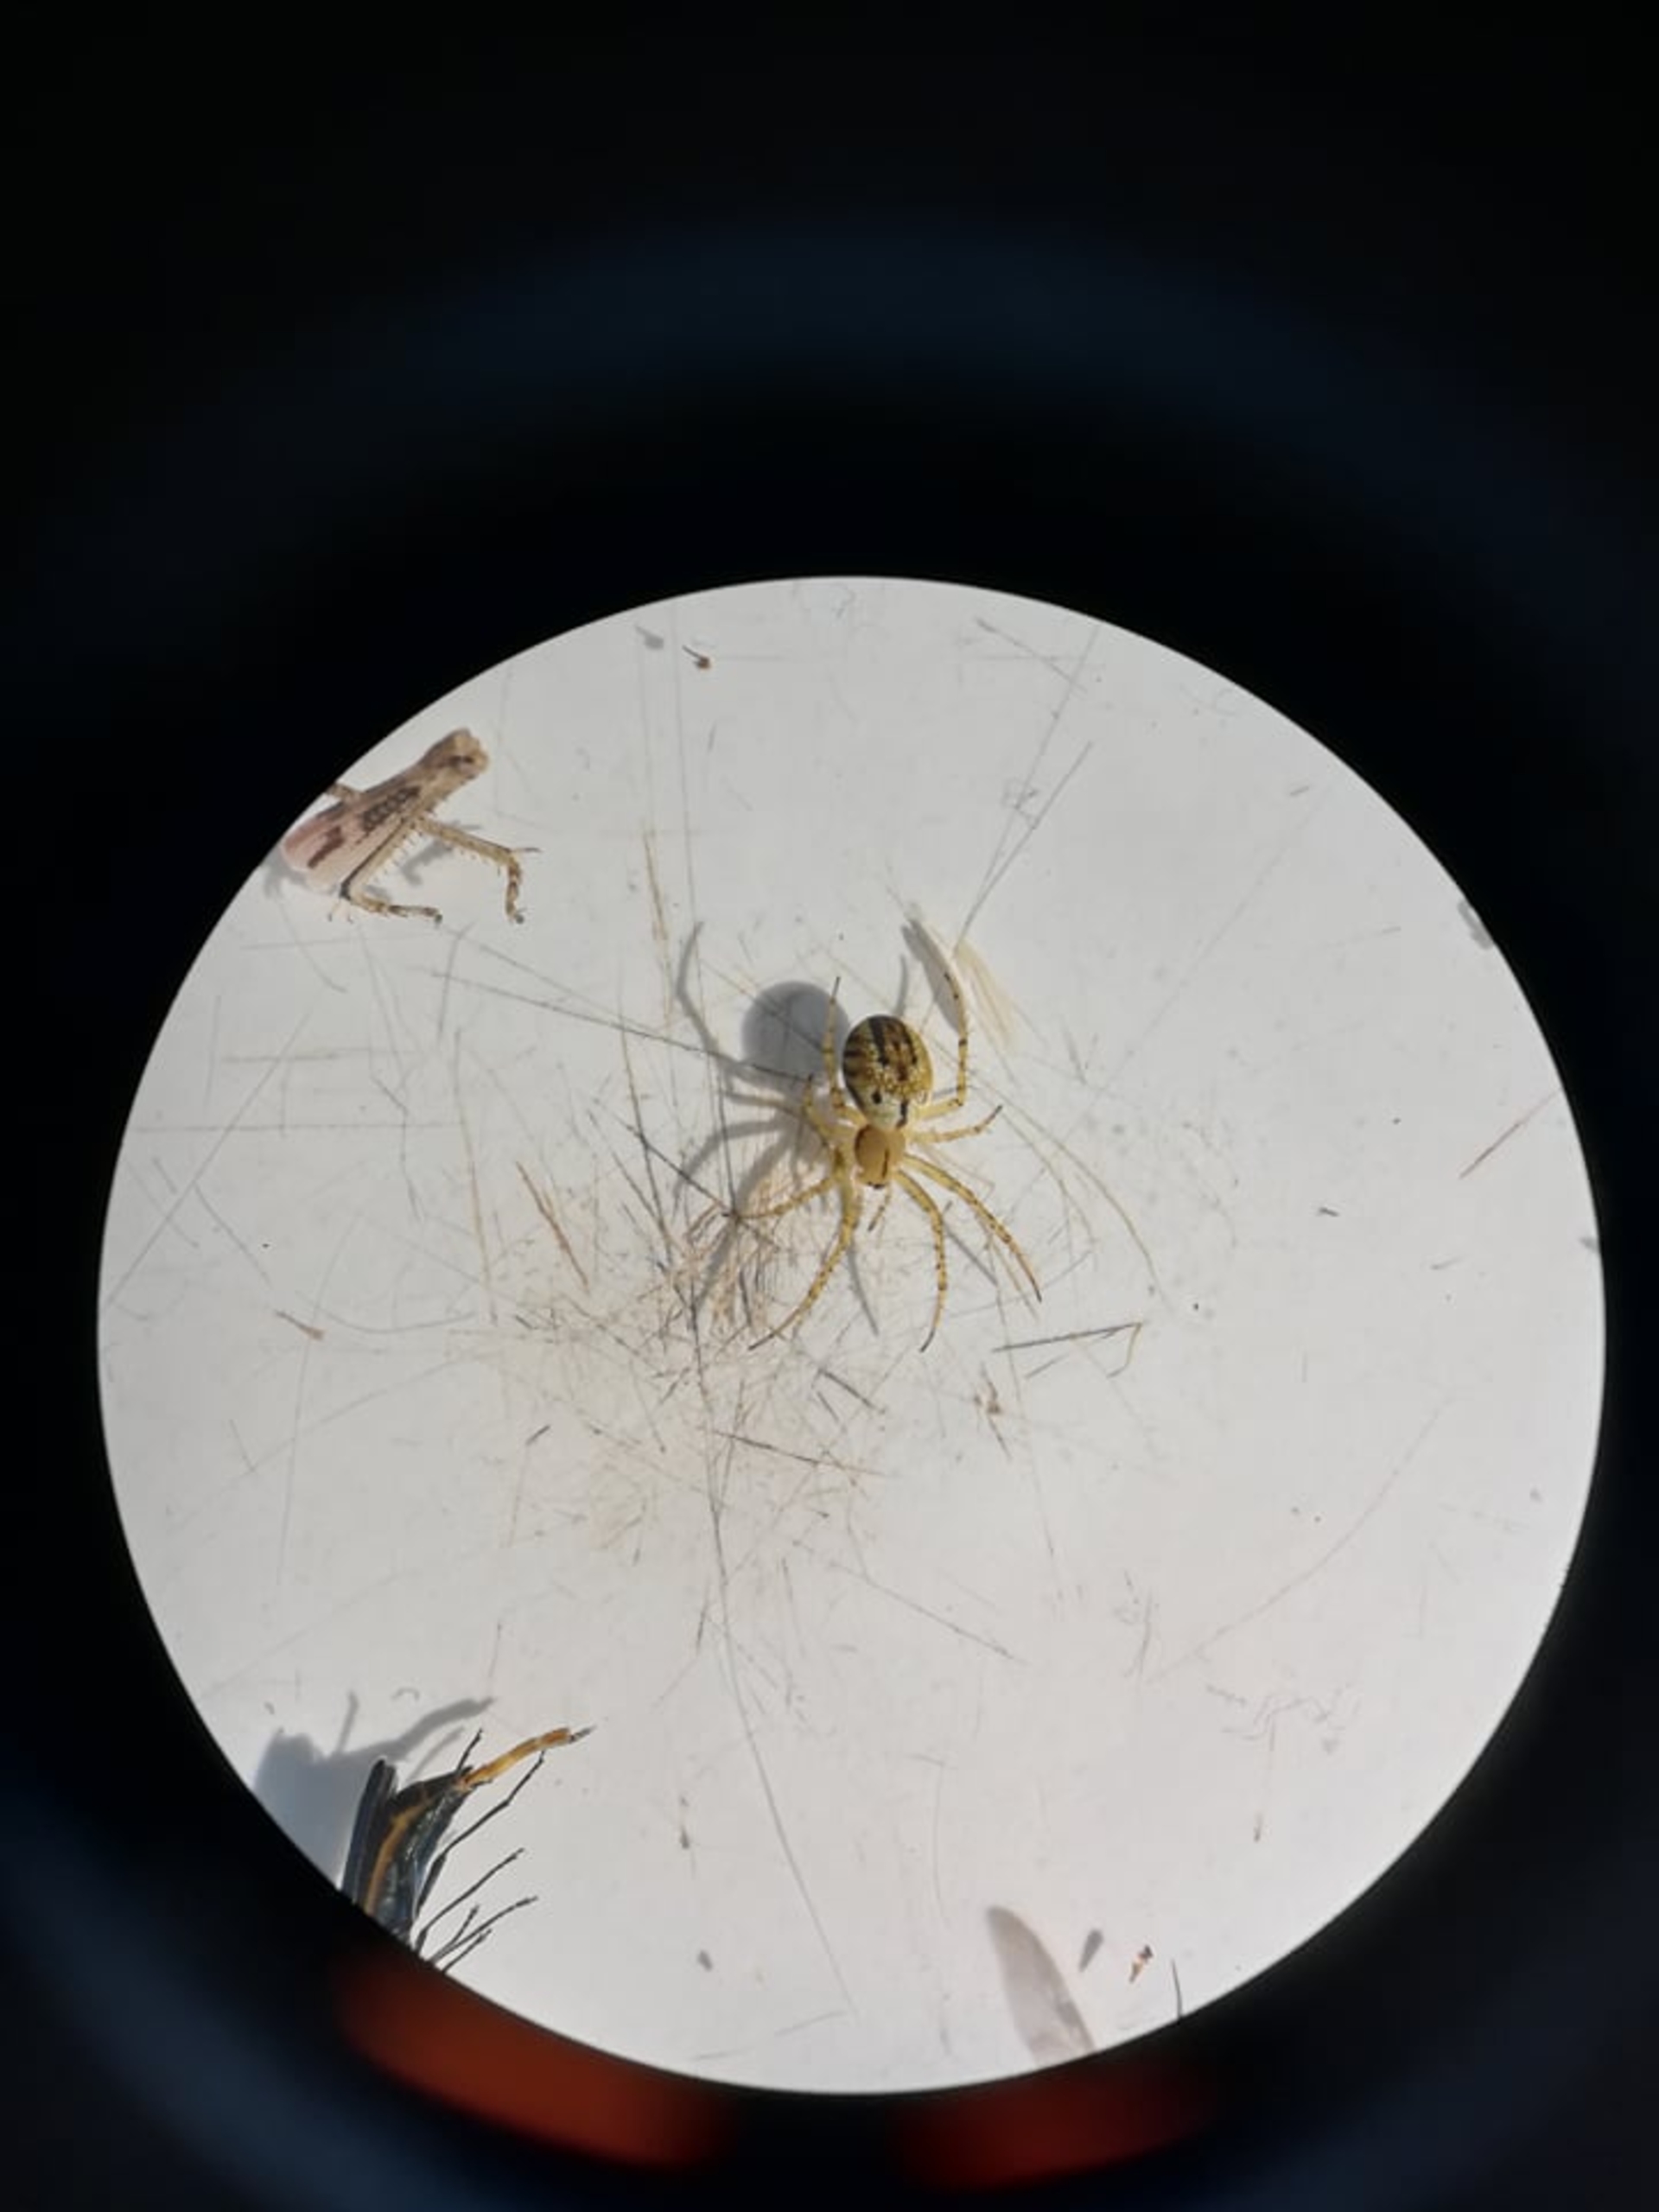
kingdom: Animalia
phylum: Arthropoda
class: Arachnida
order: Araneae
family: Araneidae
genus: Mangora
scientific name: Mangora acalypha
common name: Sortstribet hedehjulspinder
